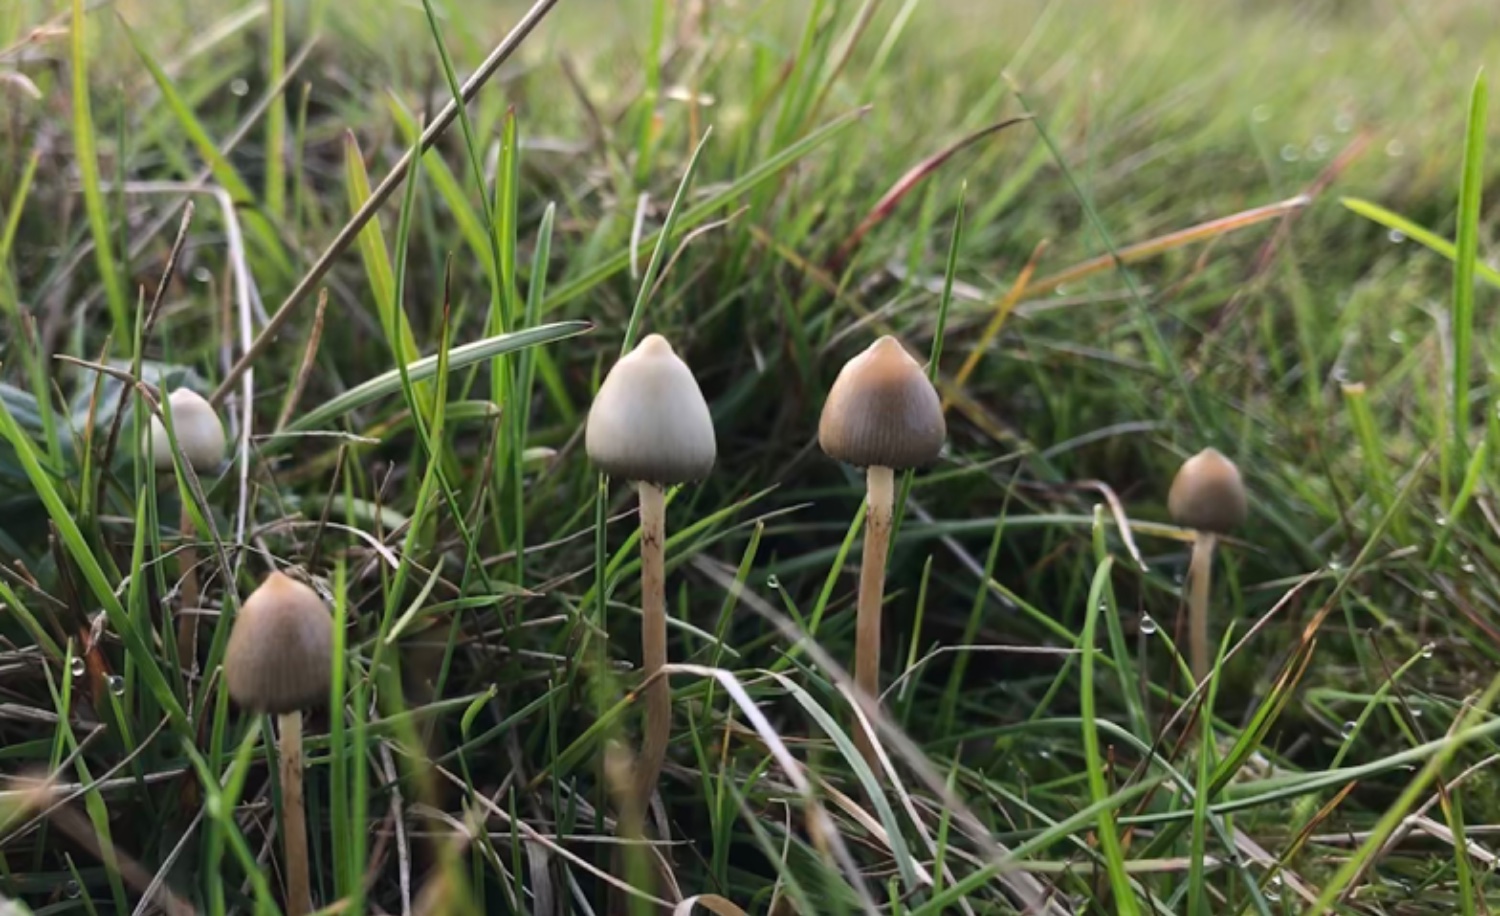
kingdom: Fungi
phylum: Basidiomycota
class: Agaricomycetes
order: Agaricales
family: Hymenogastraceae
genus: Psilocybe
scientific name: Psilocybe semilanceata
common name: spids nøgenhat
